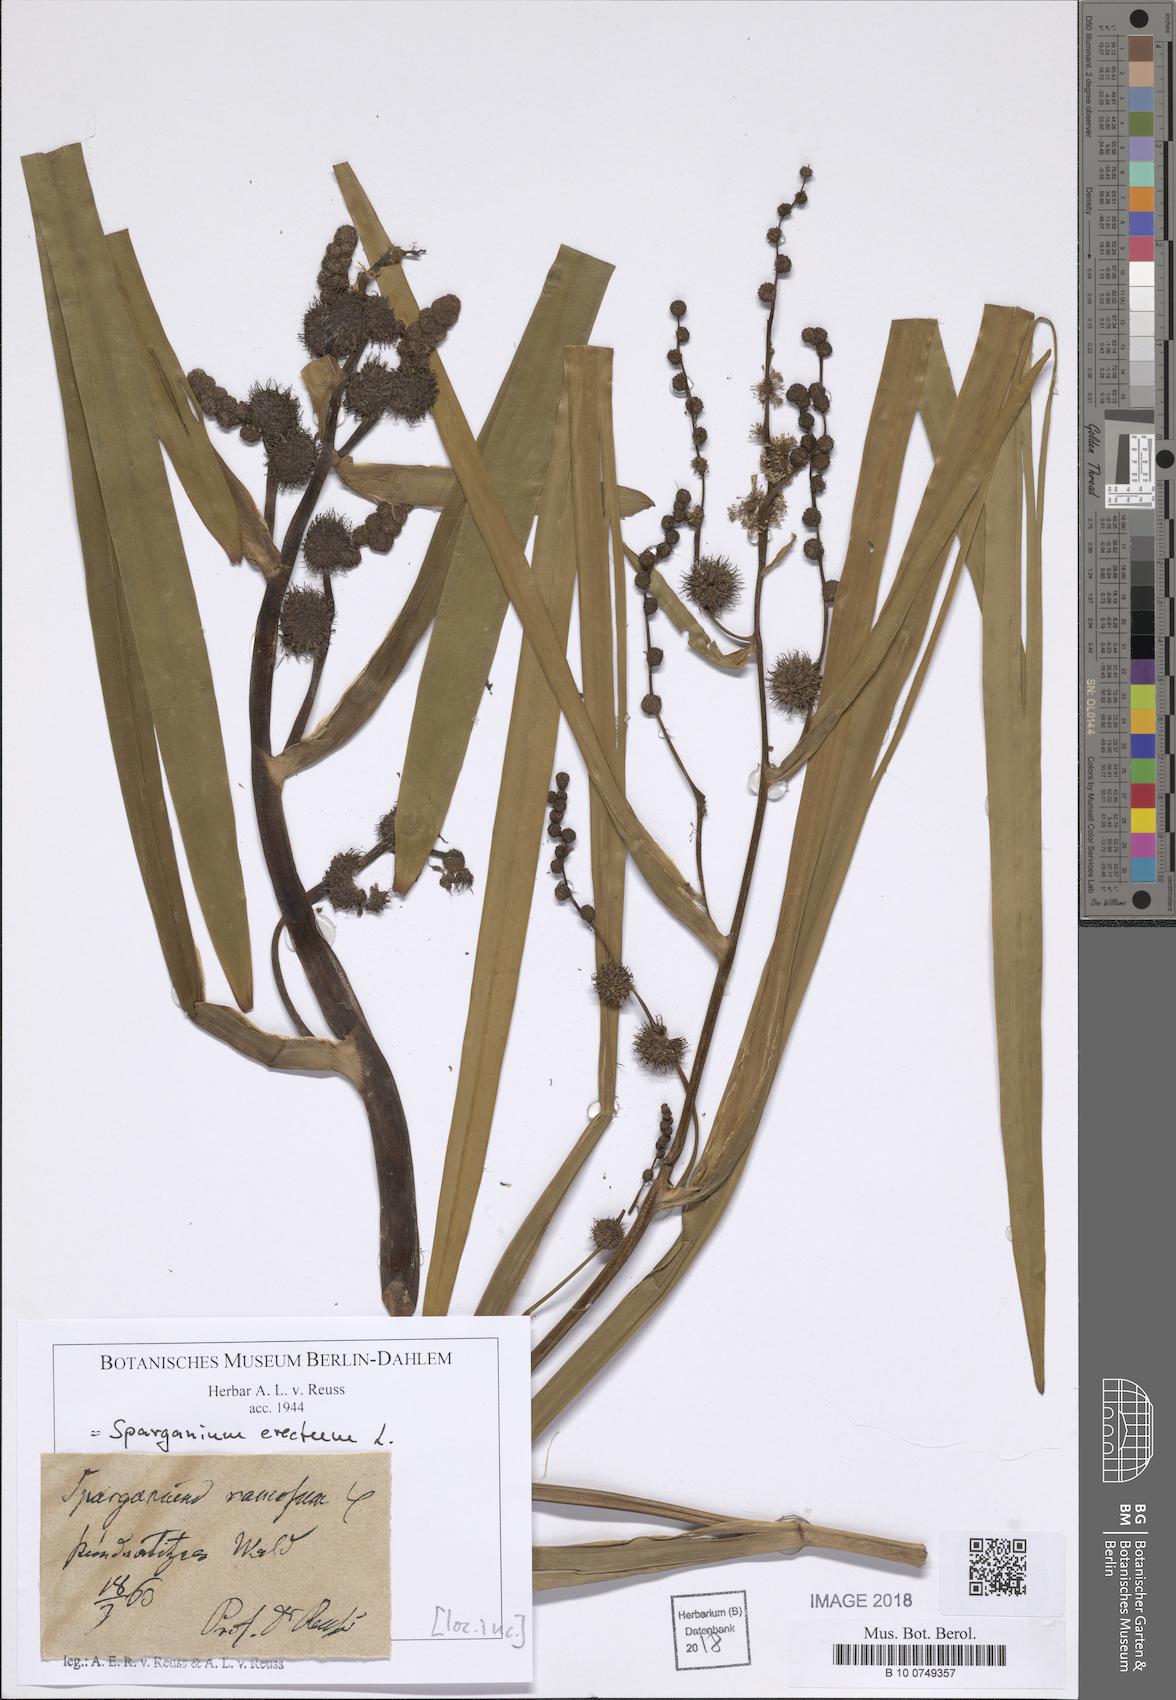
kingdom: Plantae
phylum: Tracheophyta
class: Liliopsida
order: Poales
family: Typhaceae
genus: Sparganium
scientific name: Sparganium erectum
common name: Branched bur-reed
